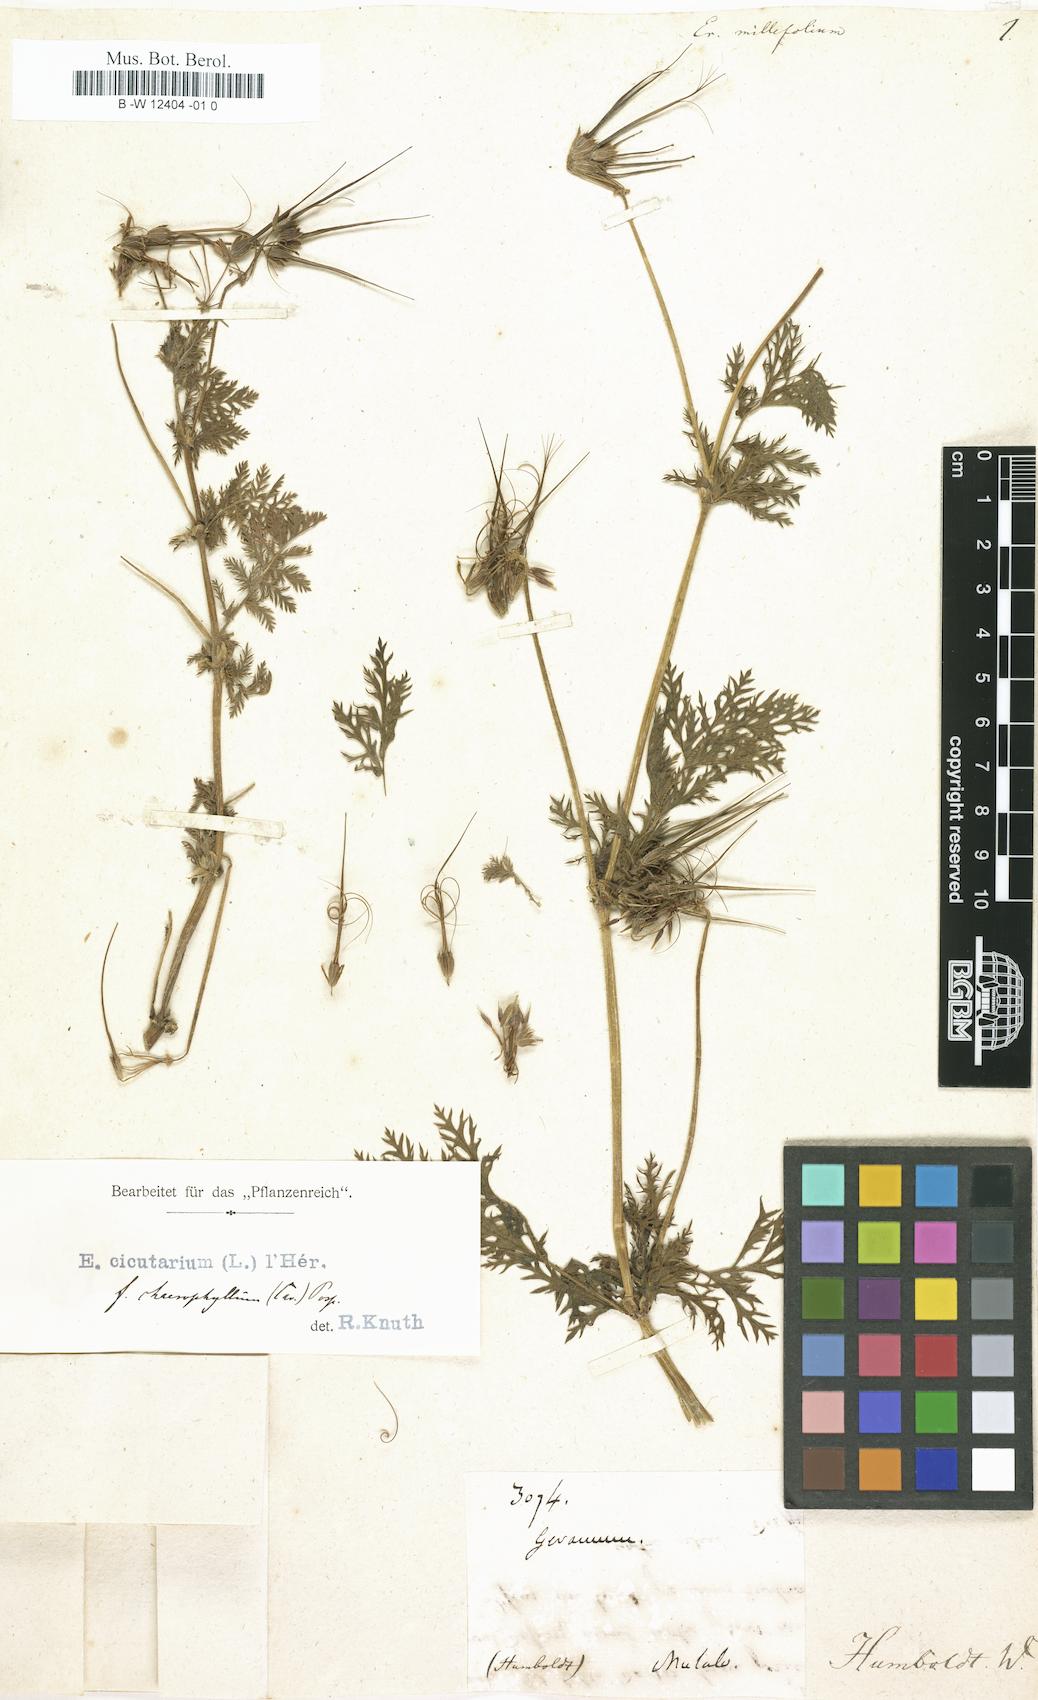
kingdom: Plantae
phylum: Tracheophyta
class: Magnoliopsida
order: Geraniales
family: Geraniaceae
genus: Erodium
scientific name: Erodium cicutarium
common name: Common stork's-bill
